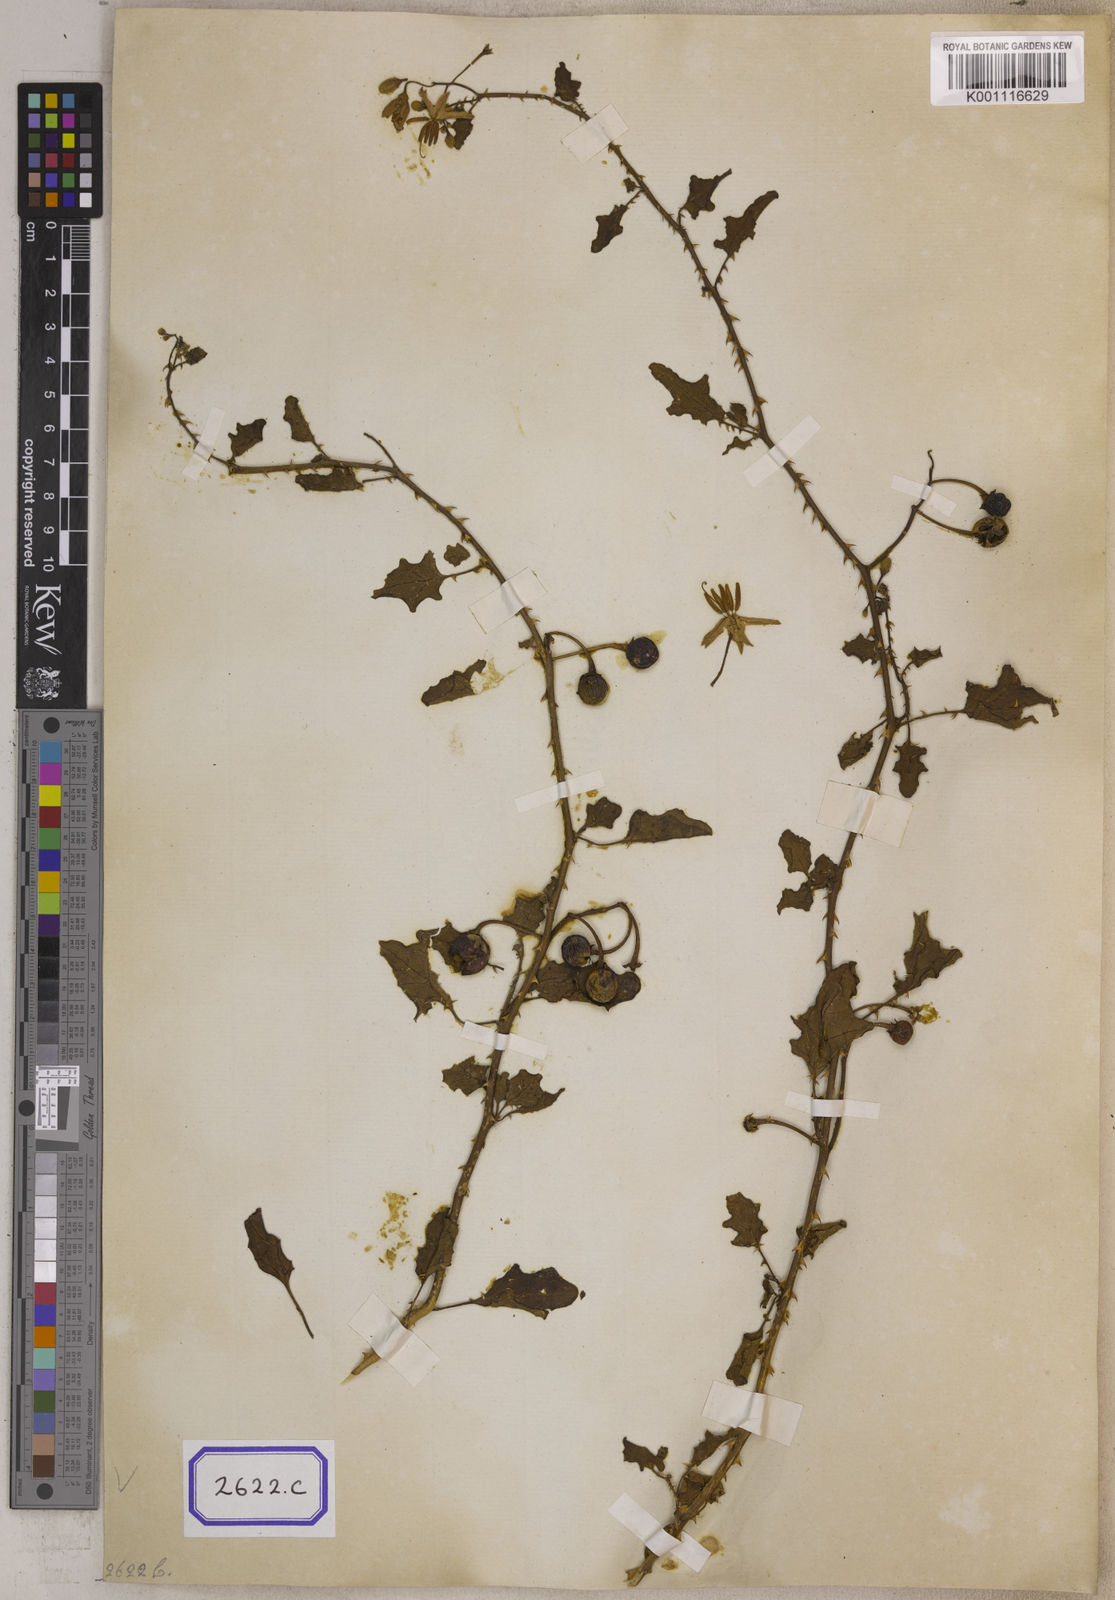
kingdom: Plantae
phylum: Tracheophyta
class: Magnoliopsida
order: Solanales
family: Solanaceae
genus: Solanum
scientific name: Solanum trilobatum
